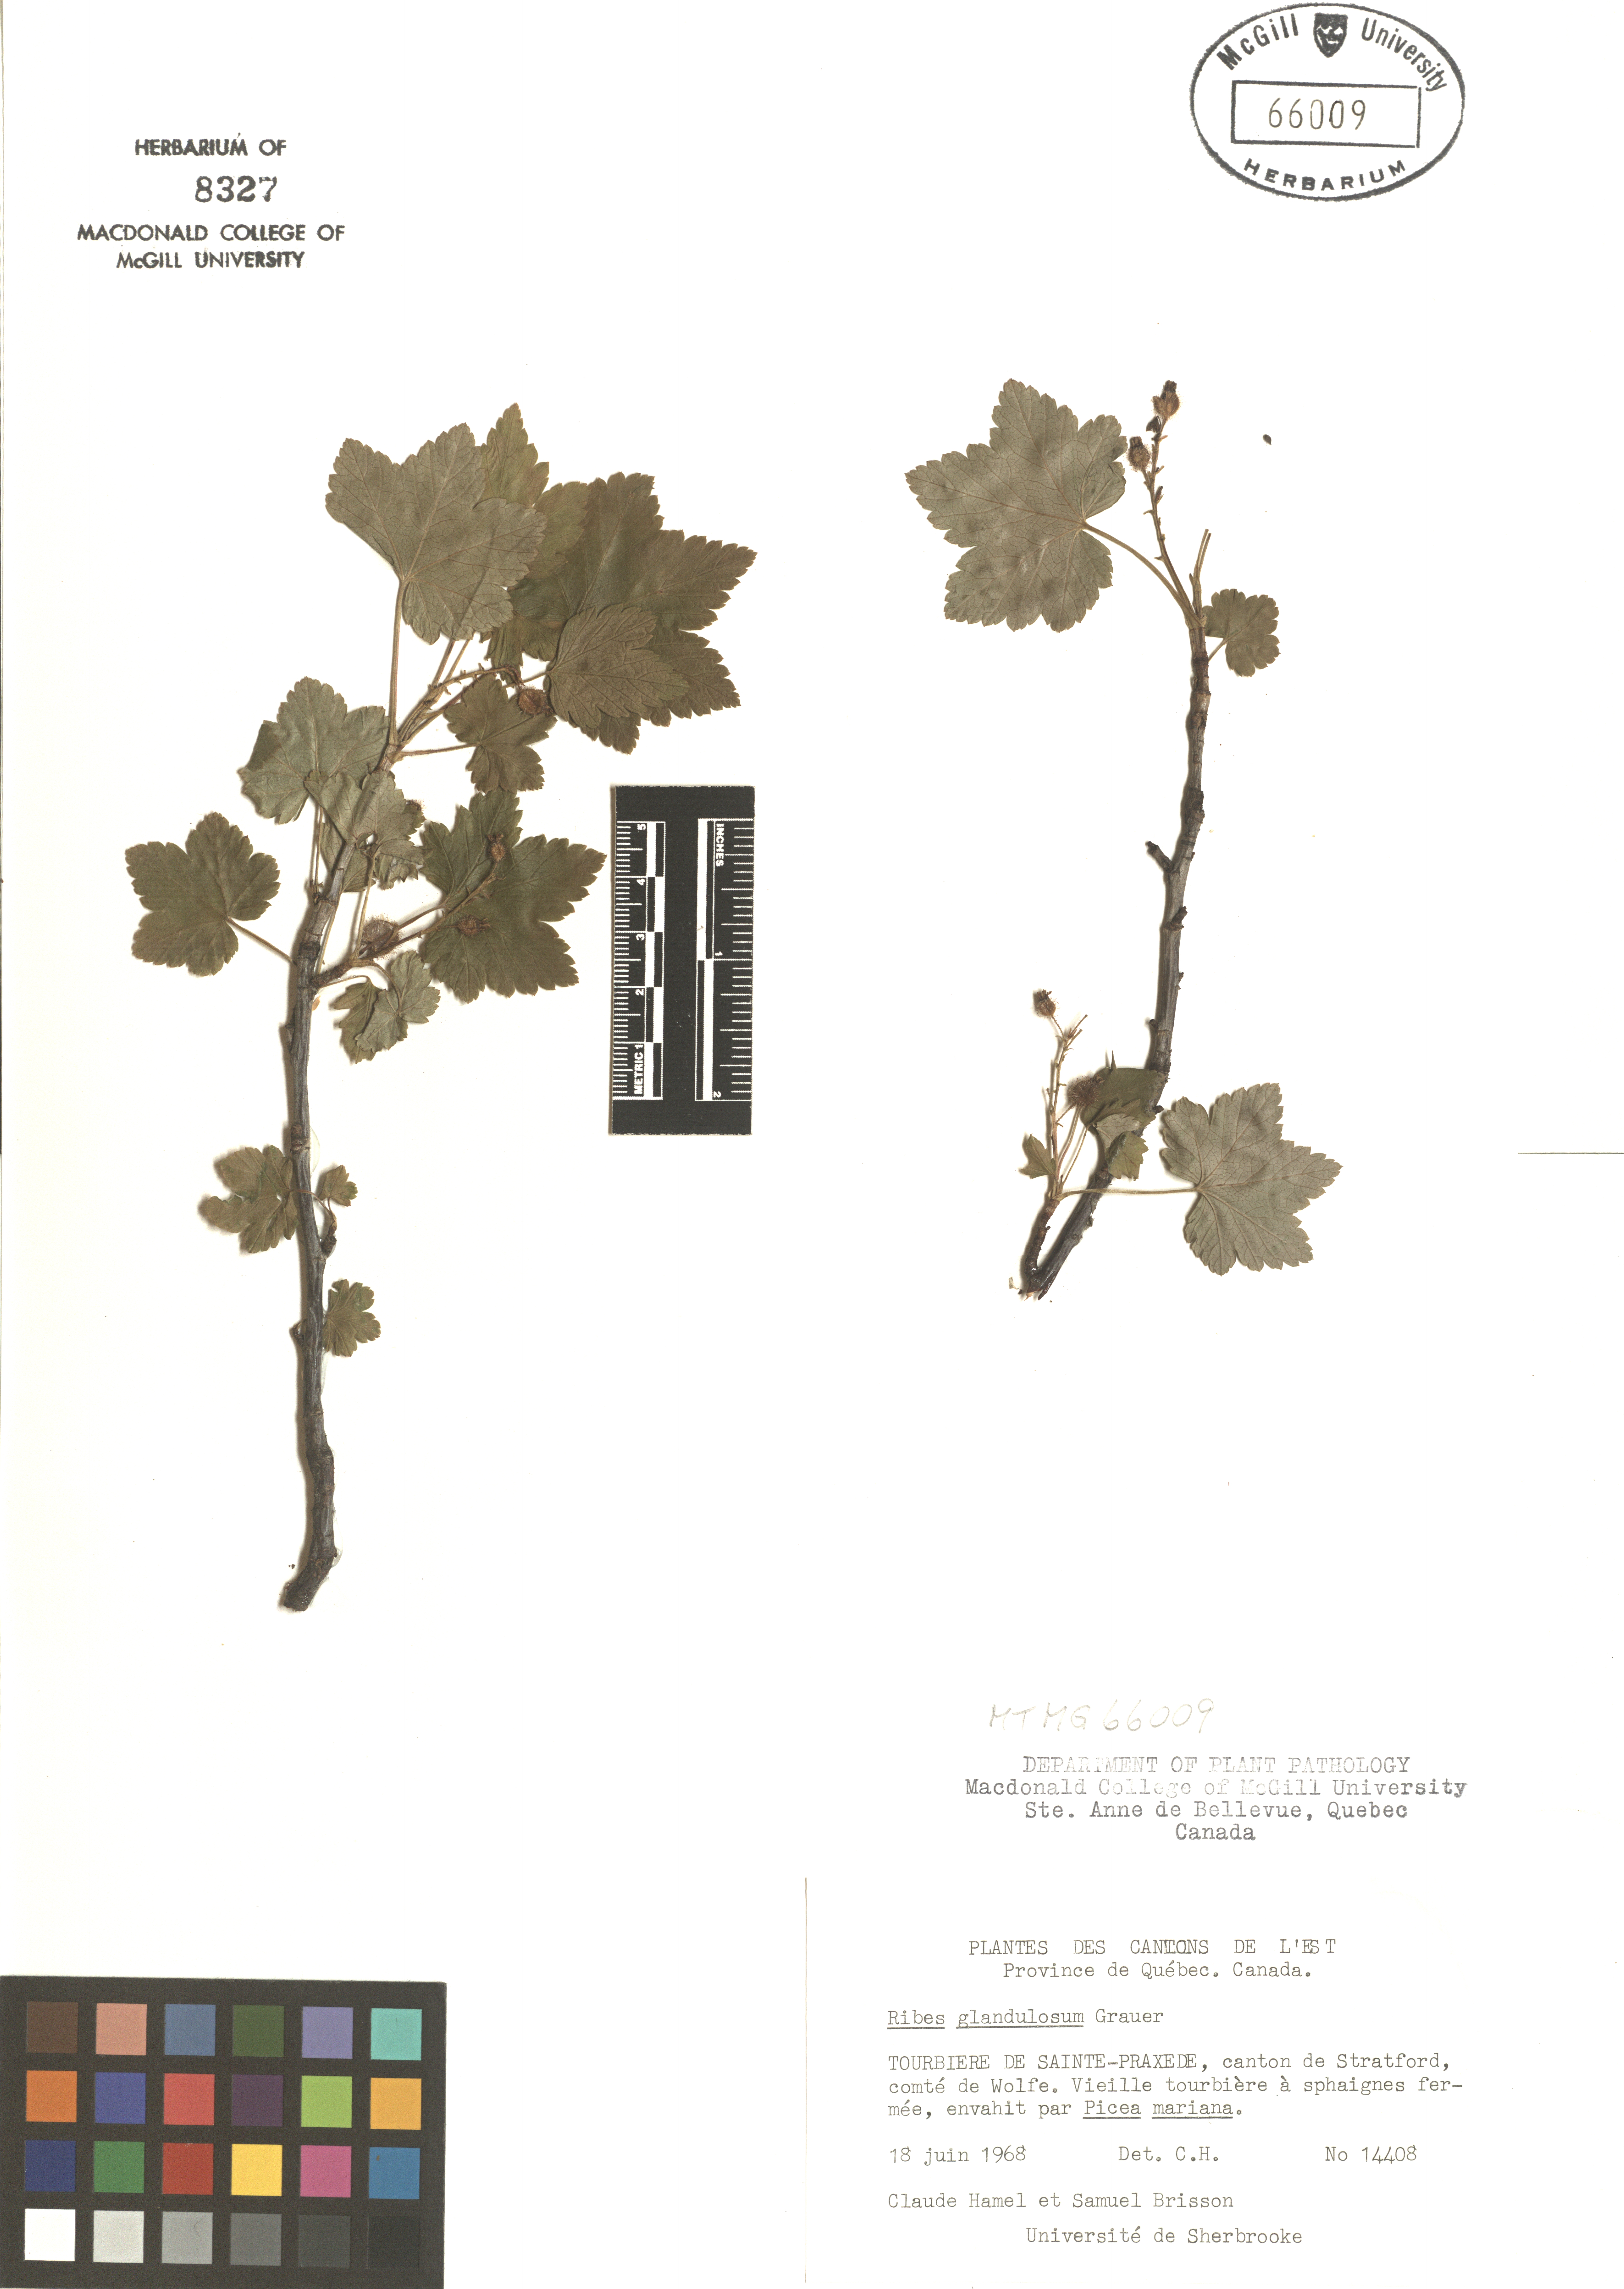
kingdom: Plantae
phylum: Tracheophyta
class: Magnoliopsida
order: Saxifragales
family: Grossulariaceae
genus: Ribes
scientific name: Ribes glandulosum
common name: Skunk currant
